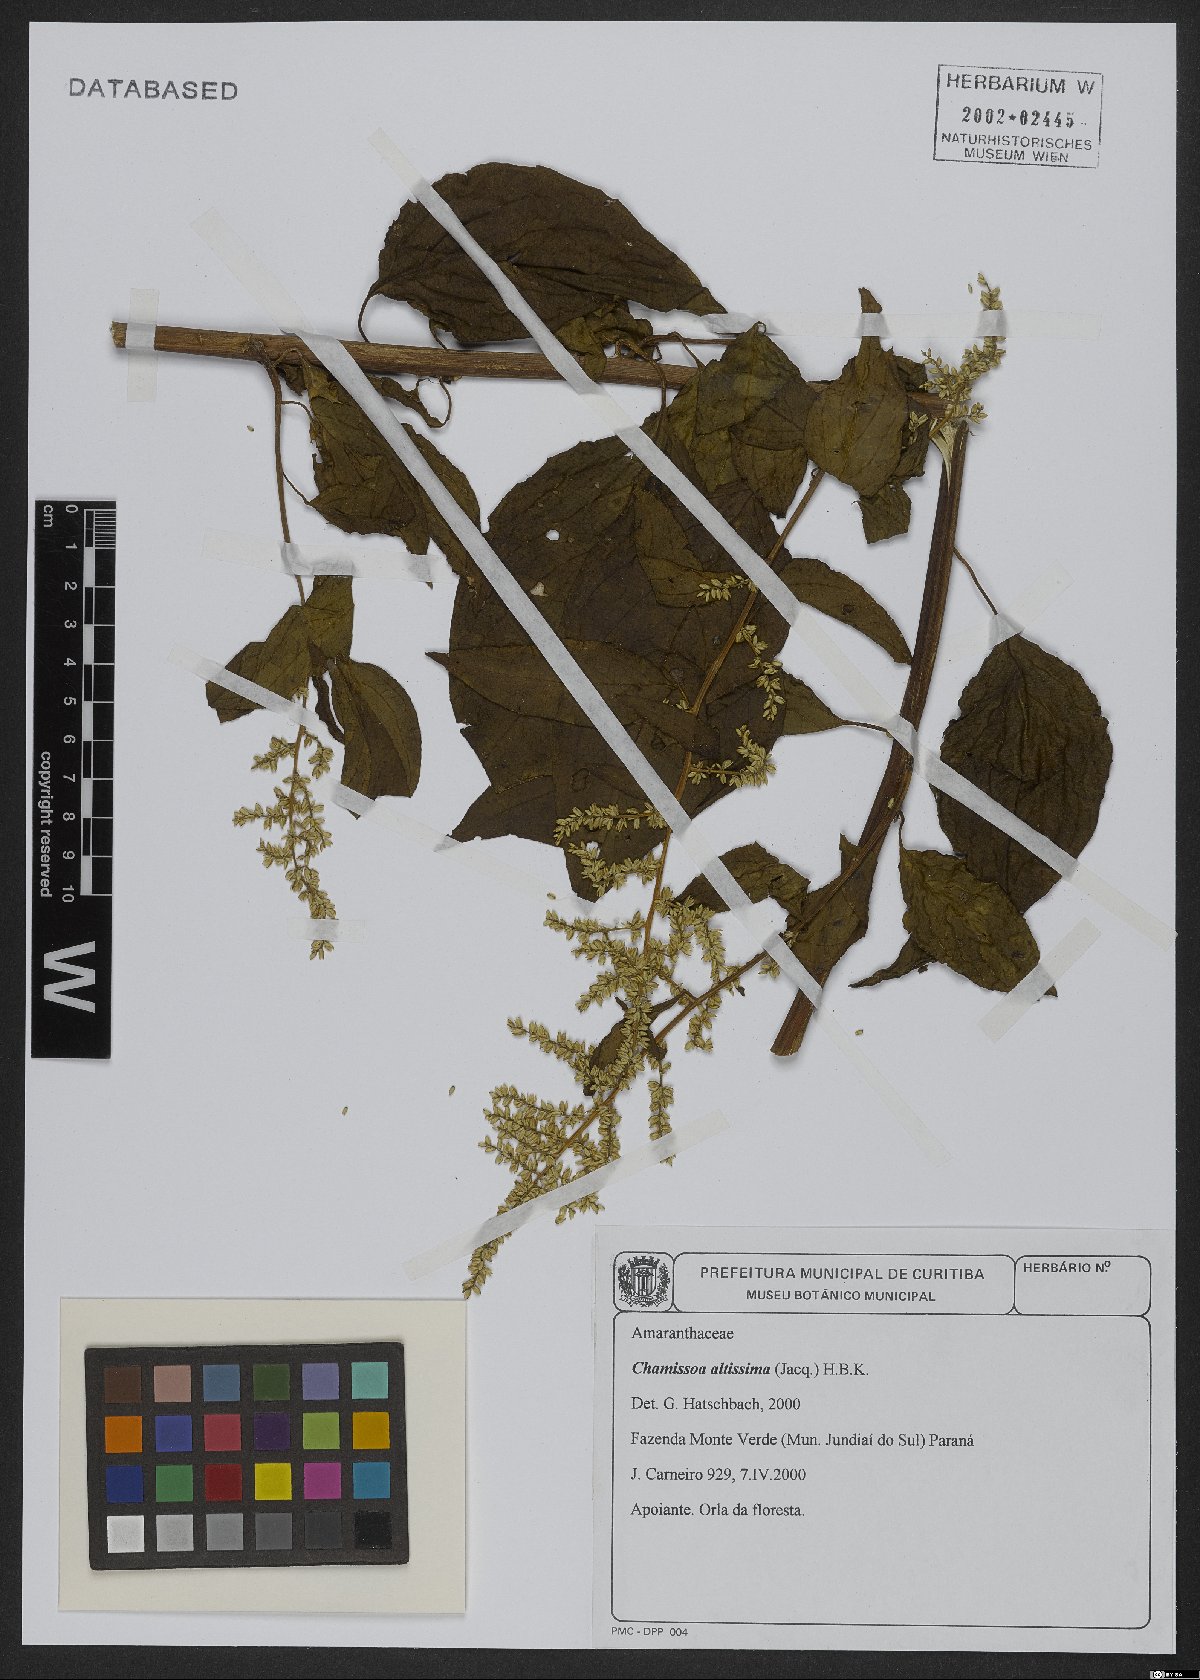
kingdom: Plantae
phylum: Tracheophyta
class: Magnoliopsida
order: Caryophyllales
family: Amaranthaceae
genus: Chamissoa
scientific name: Chamissoa altissima
